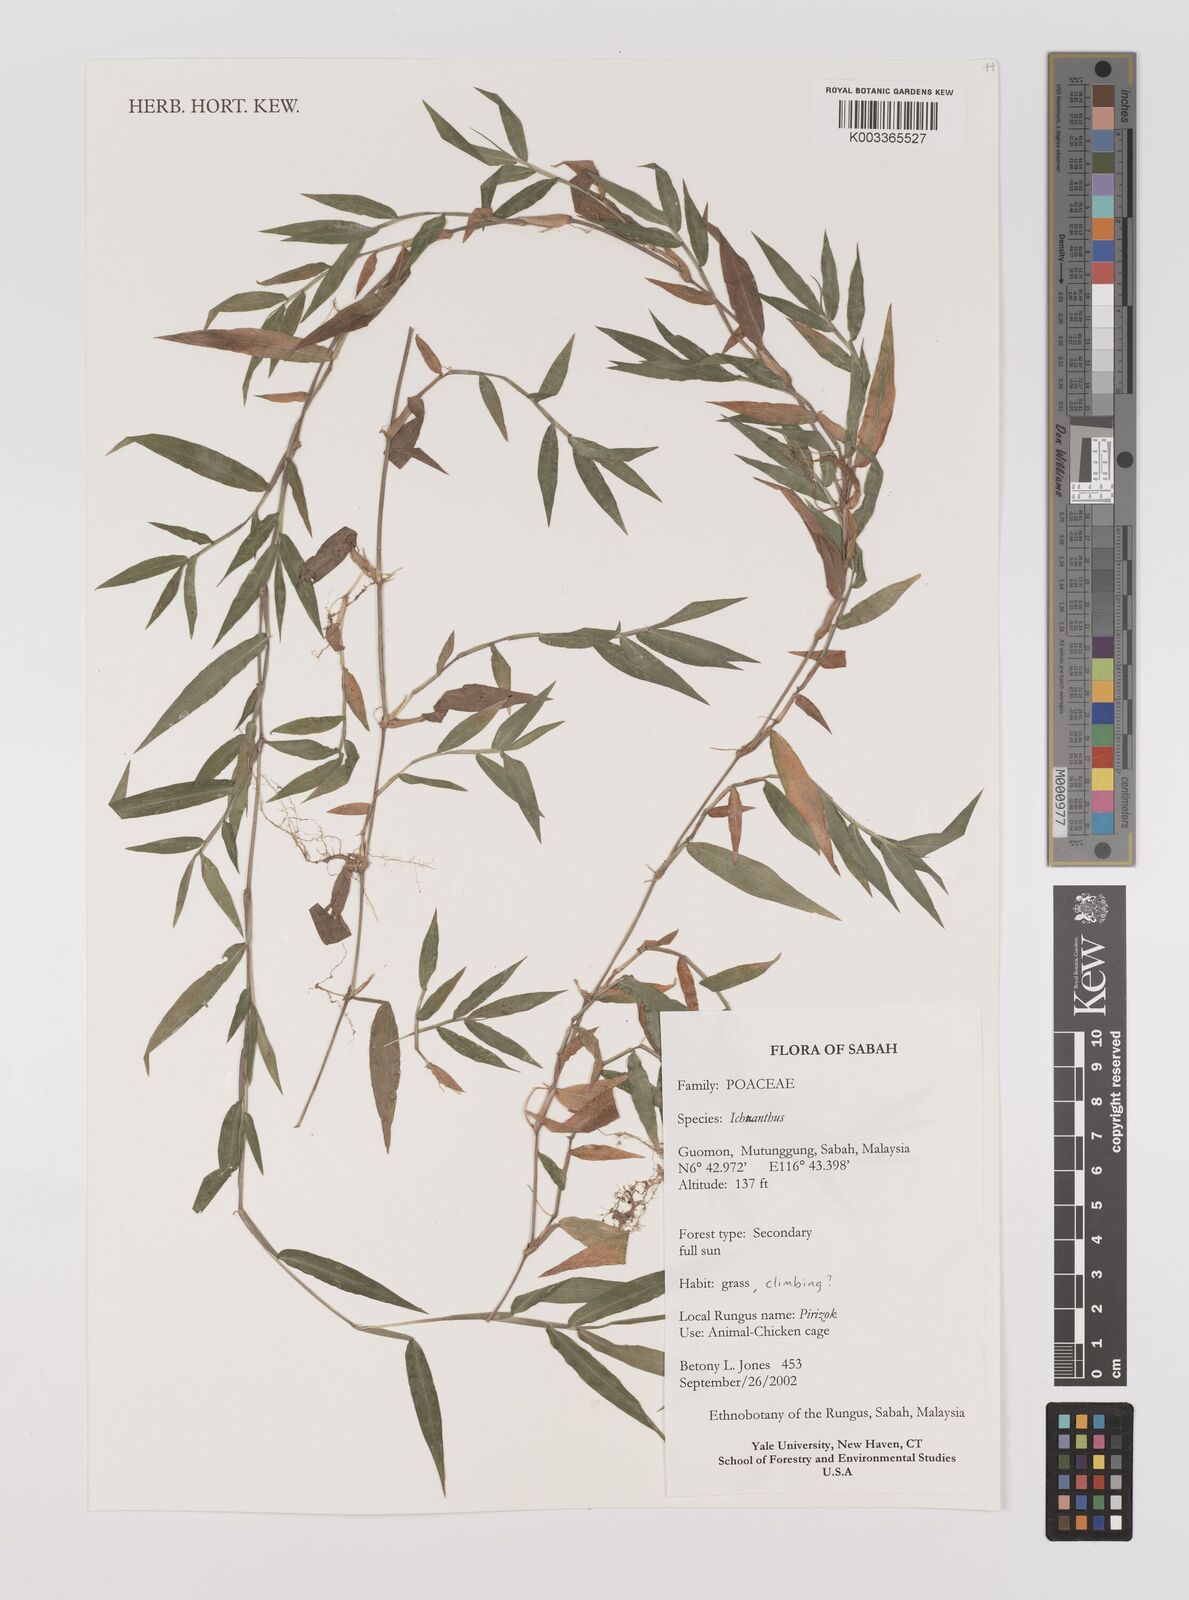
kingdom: Plantae
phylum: Tracheophyta
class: Liliopsida
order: Poales
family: Poaceae
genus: Ichnanthus
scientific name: Ichnanthus pallens
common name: Water grass
